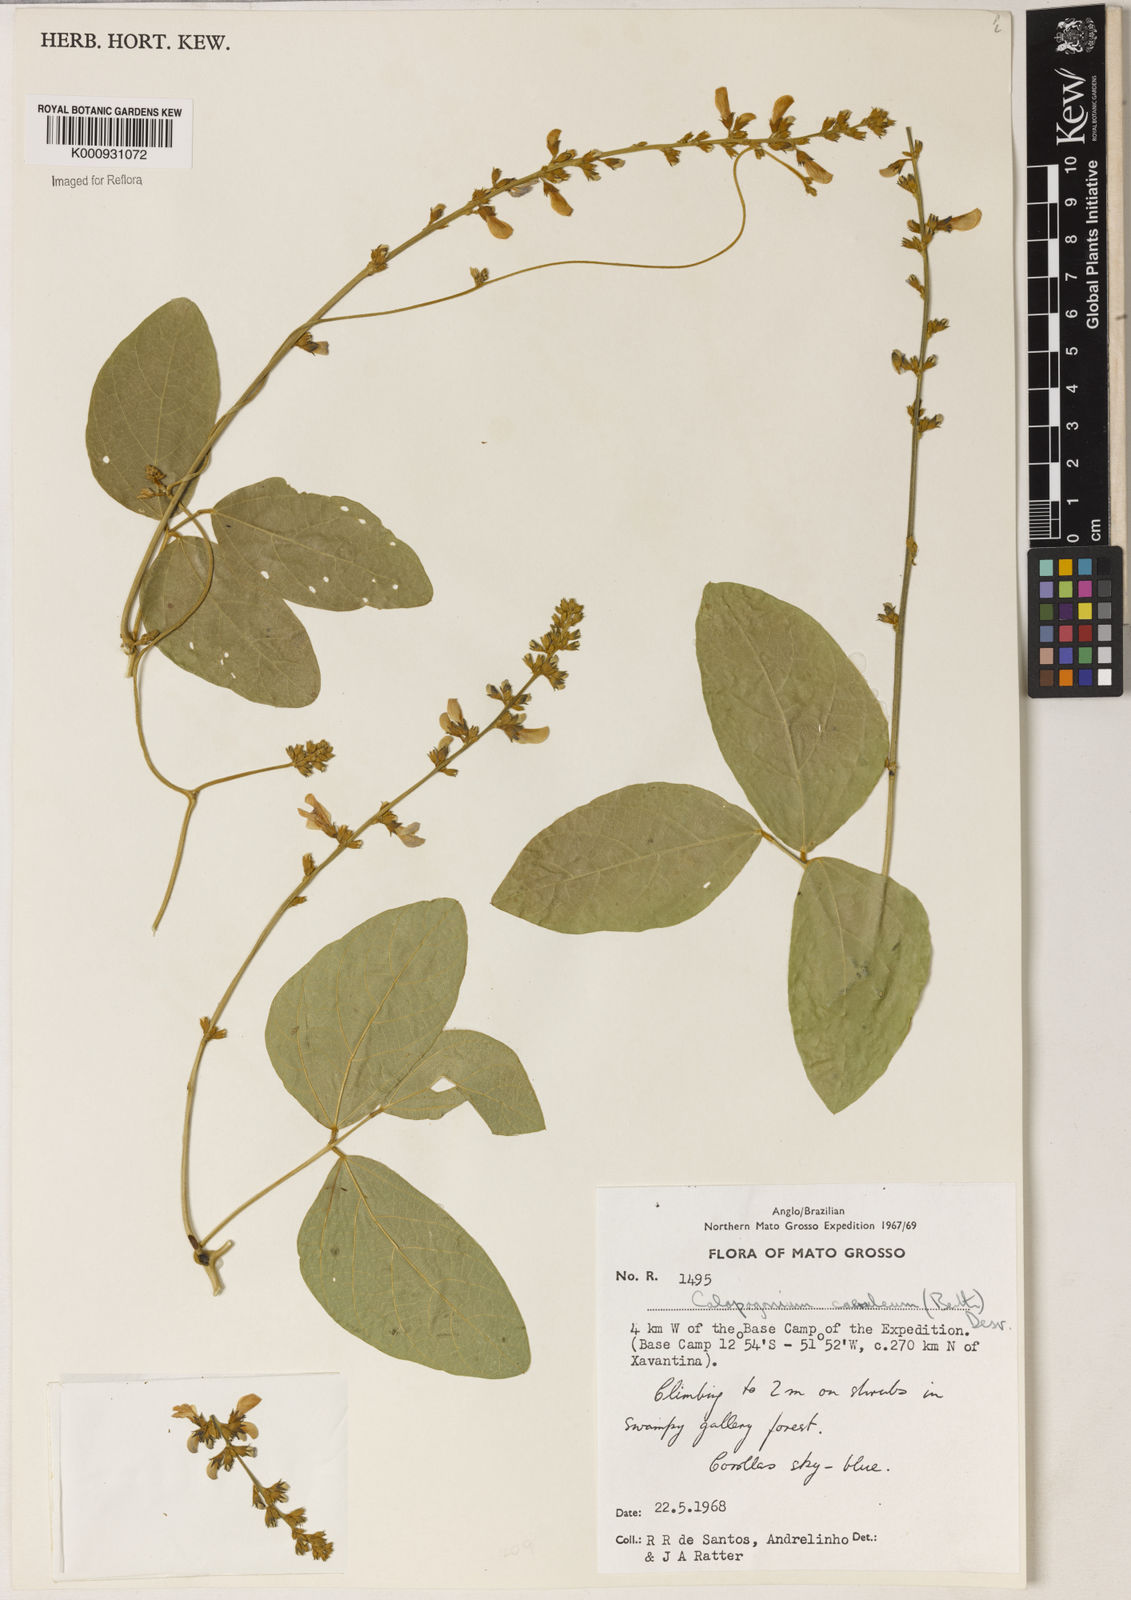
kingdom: Plantae
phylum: Tracheophyta
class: Magnoliopsida
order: Fabales
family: Fabaceae
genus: Calopogonium
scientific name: Calopogonium caeruleum
